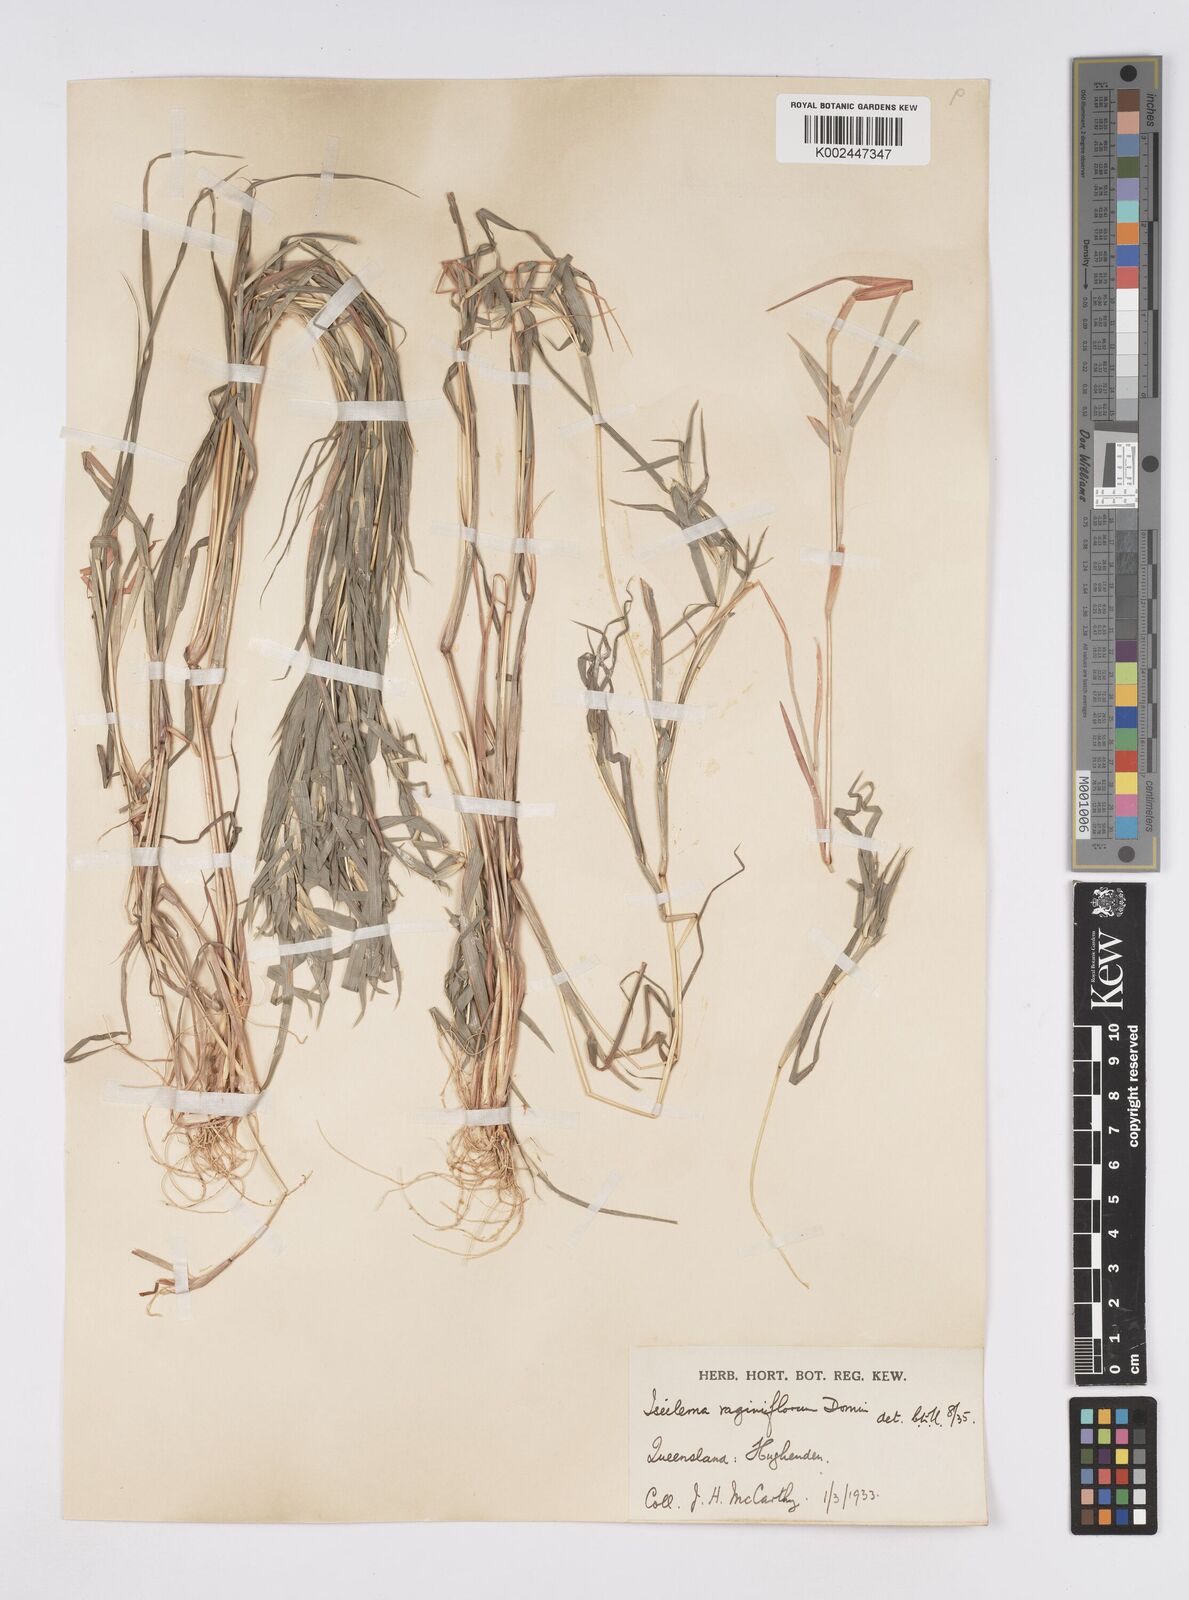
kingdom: Plantae
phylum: Tracheophyta
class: Liliopsida
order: Poales
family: Poaceae
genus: Iseilema
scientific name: Iseilema vaginiflorum
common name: Red flinders grass
